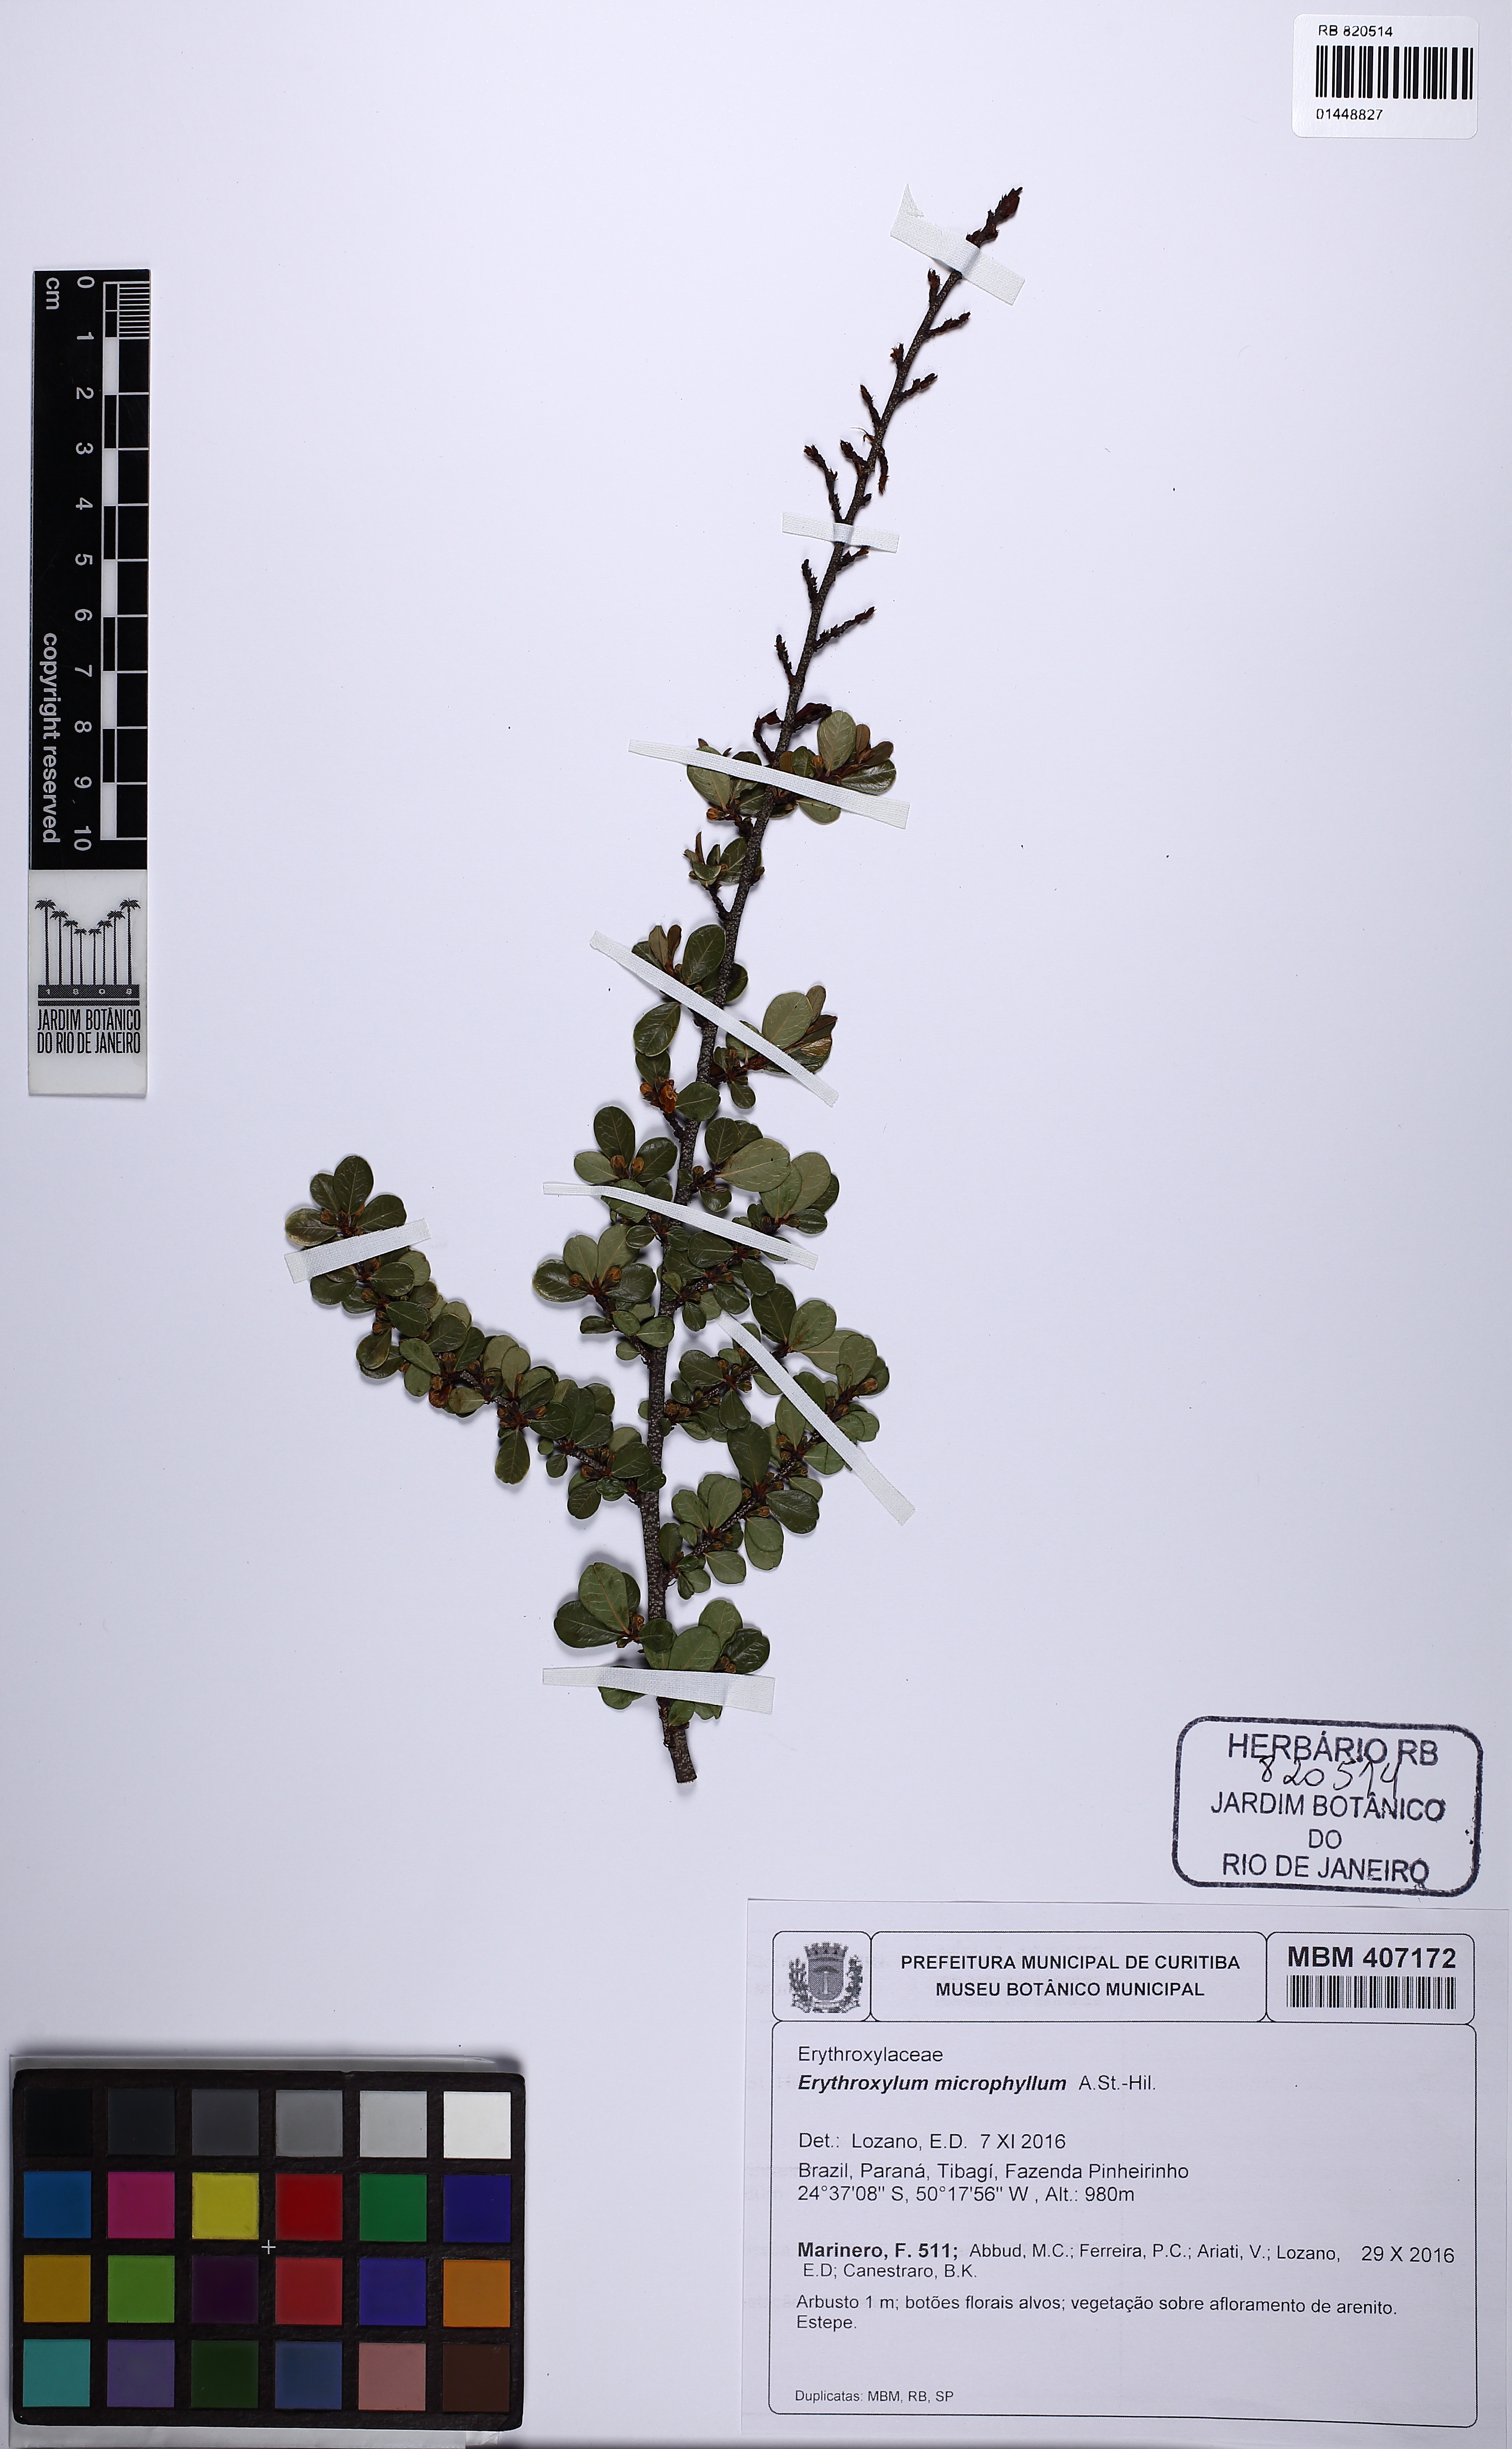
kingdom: Plantae
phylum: Tracheophyta
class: Magnoliopsida
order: Malpighiales
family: Erythroxylaceae
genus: Erythroxylum
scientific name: Erythroxylum microphyllum
